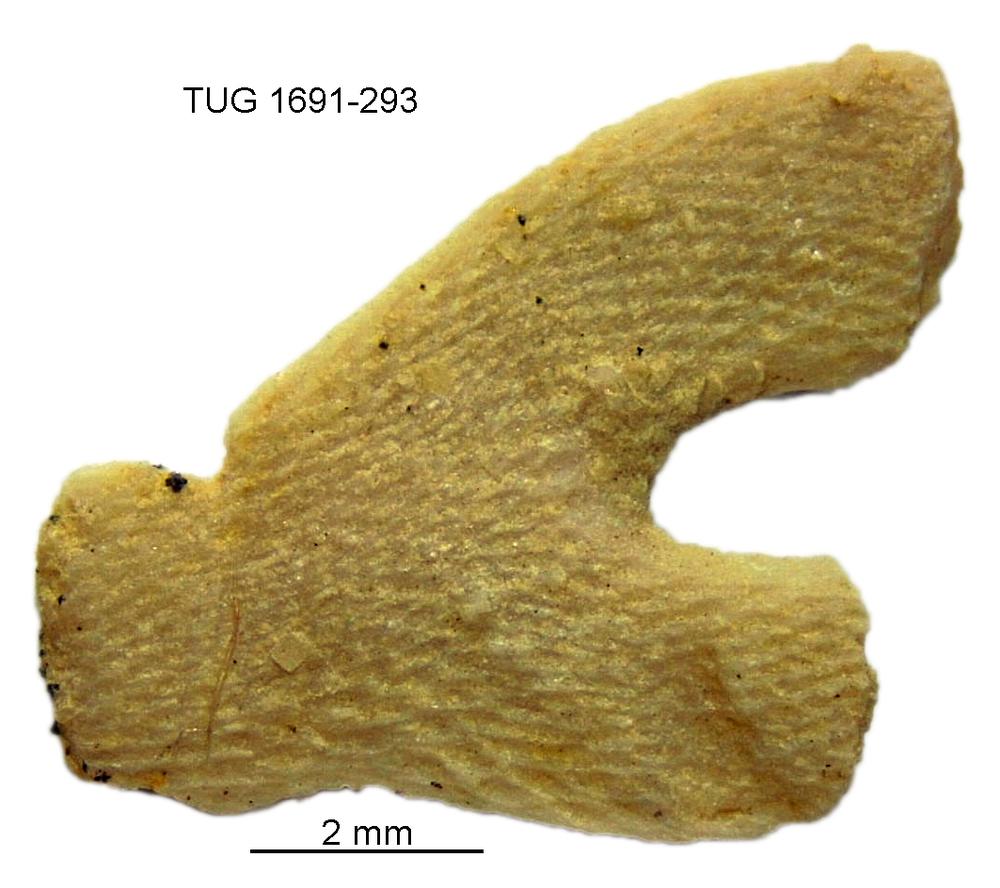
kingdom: Animalia
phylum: Bryozoa
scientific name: Bryozoa
